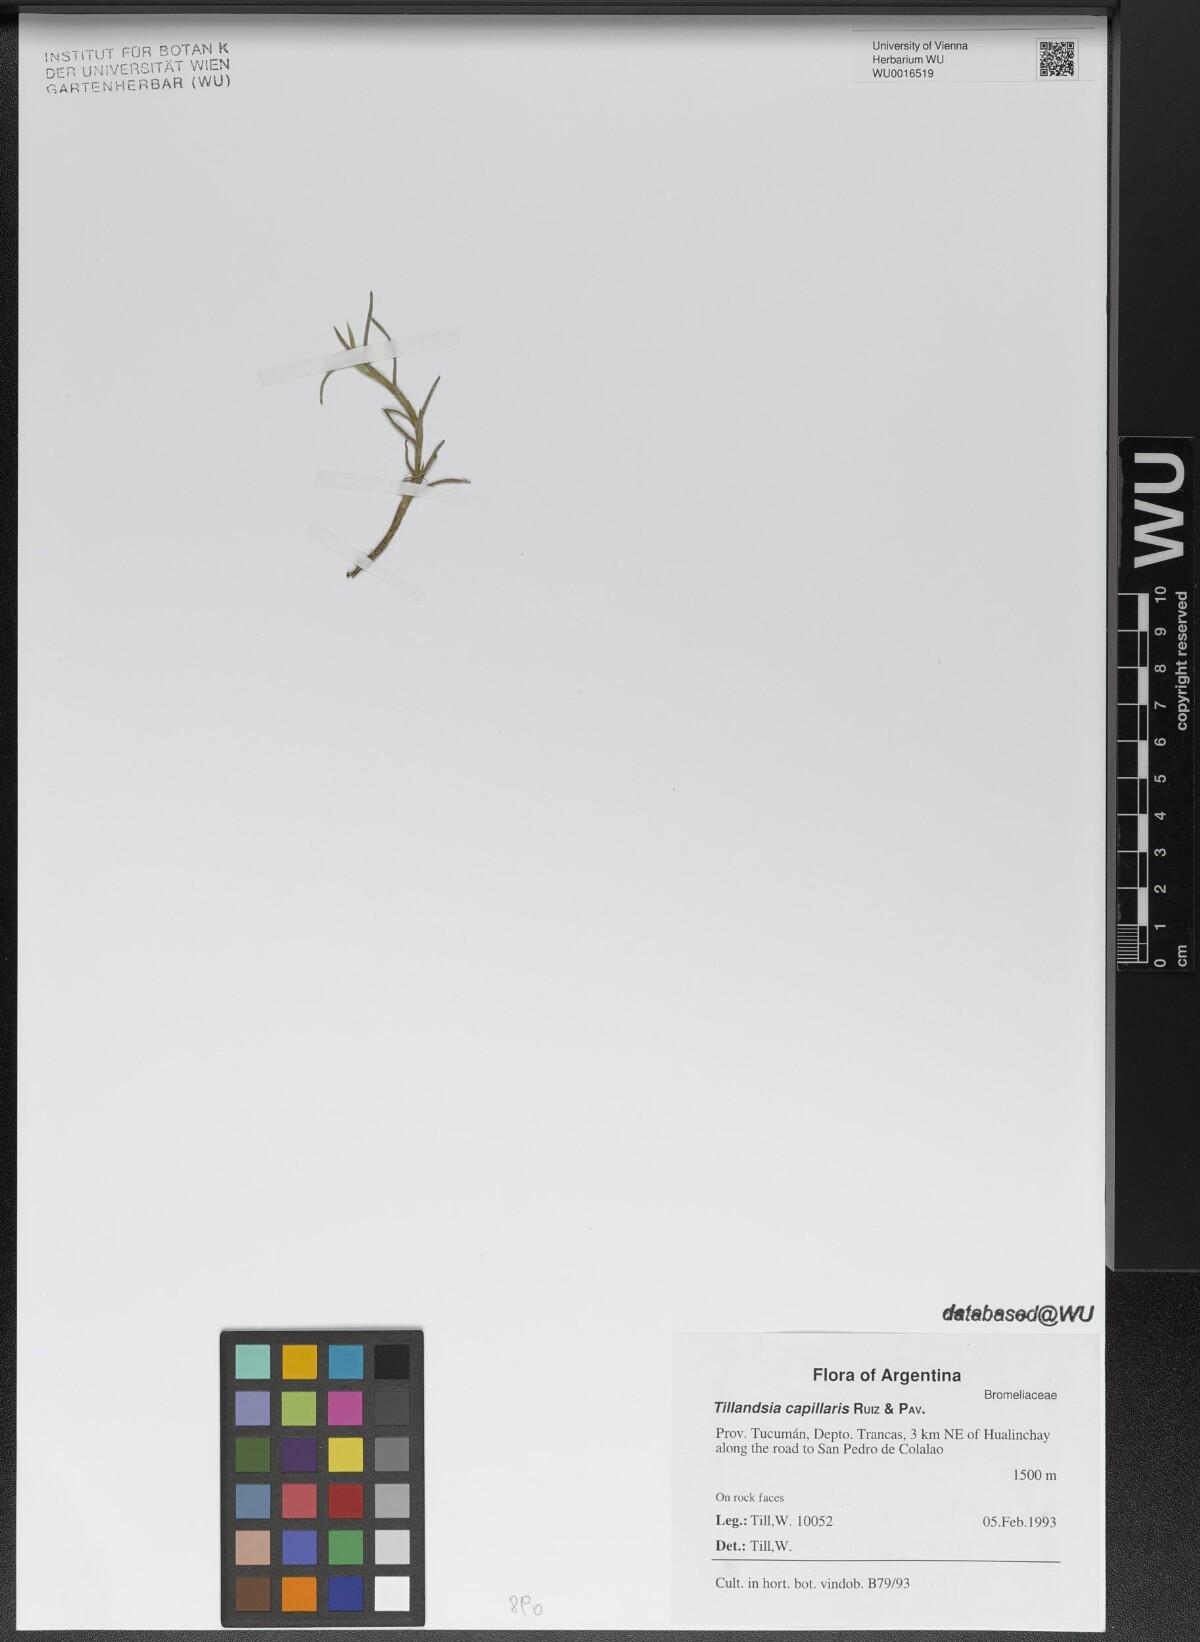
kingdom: Plantae
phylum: Tracheophyta
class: Liliopsida
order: Poales
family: Bromeliaceae
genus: Tillandsia
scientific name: Tillandsia capillaris
